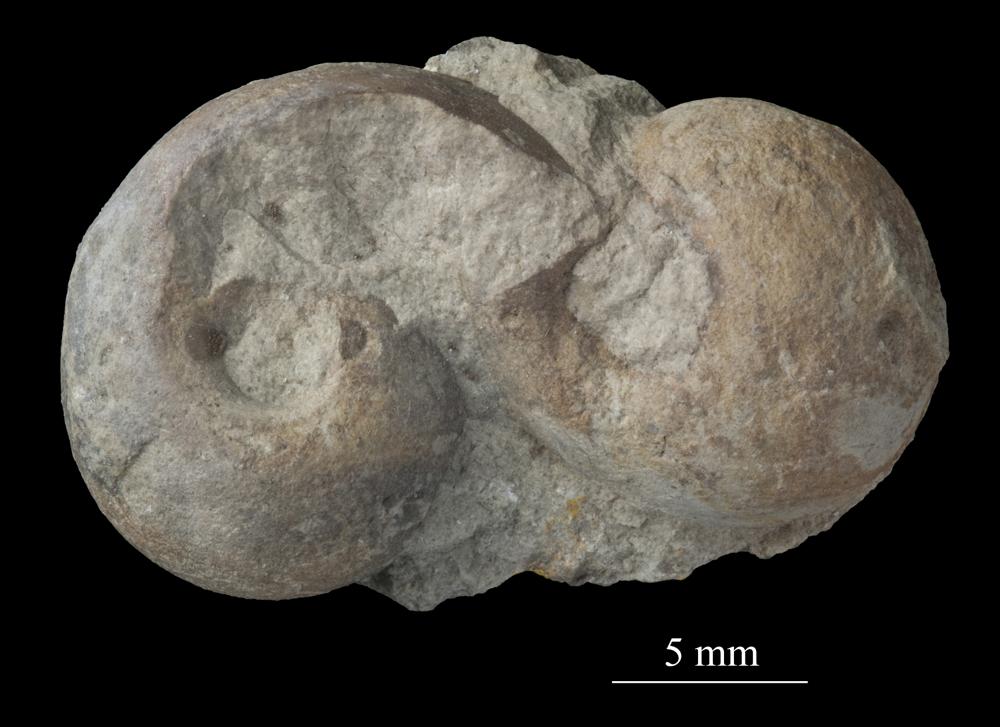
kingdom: Animalia
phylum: Mollusca
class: Gastropoda
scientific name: Gastropoda
